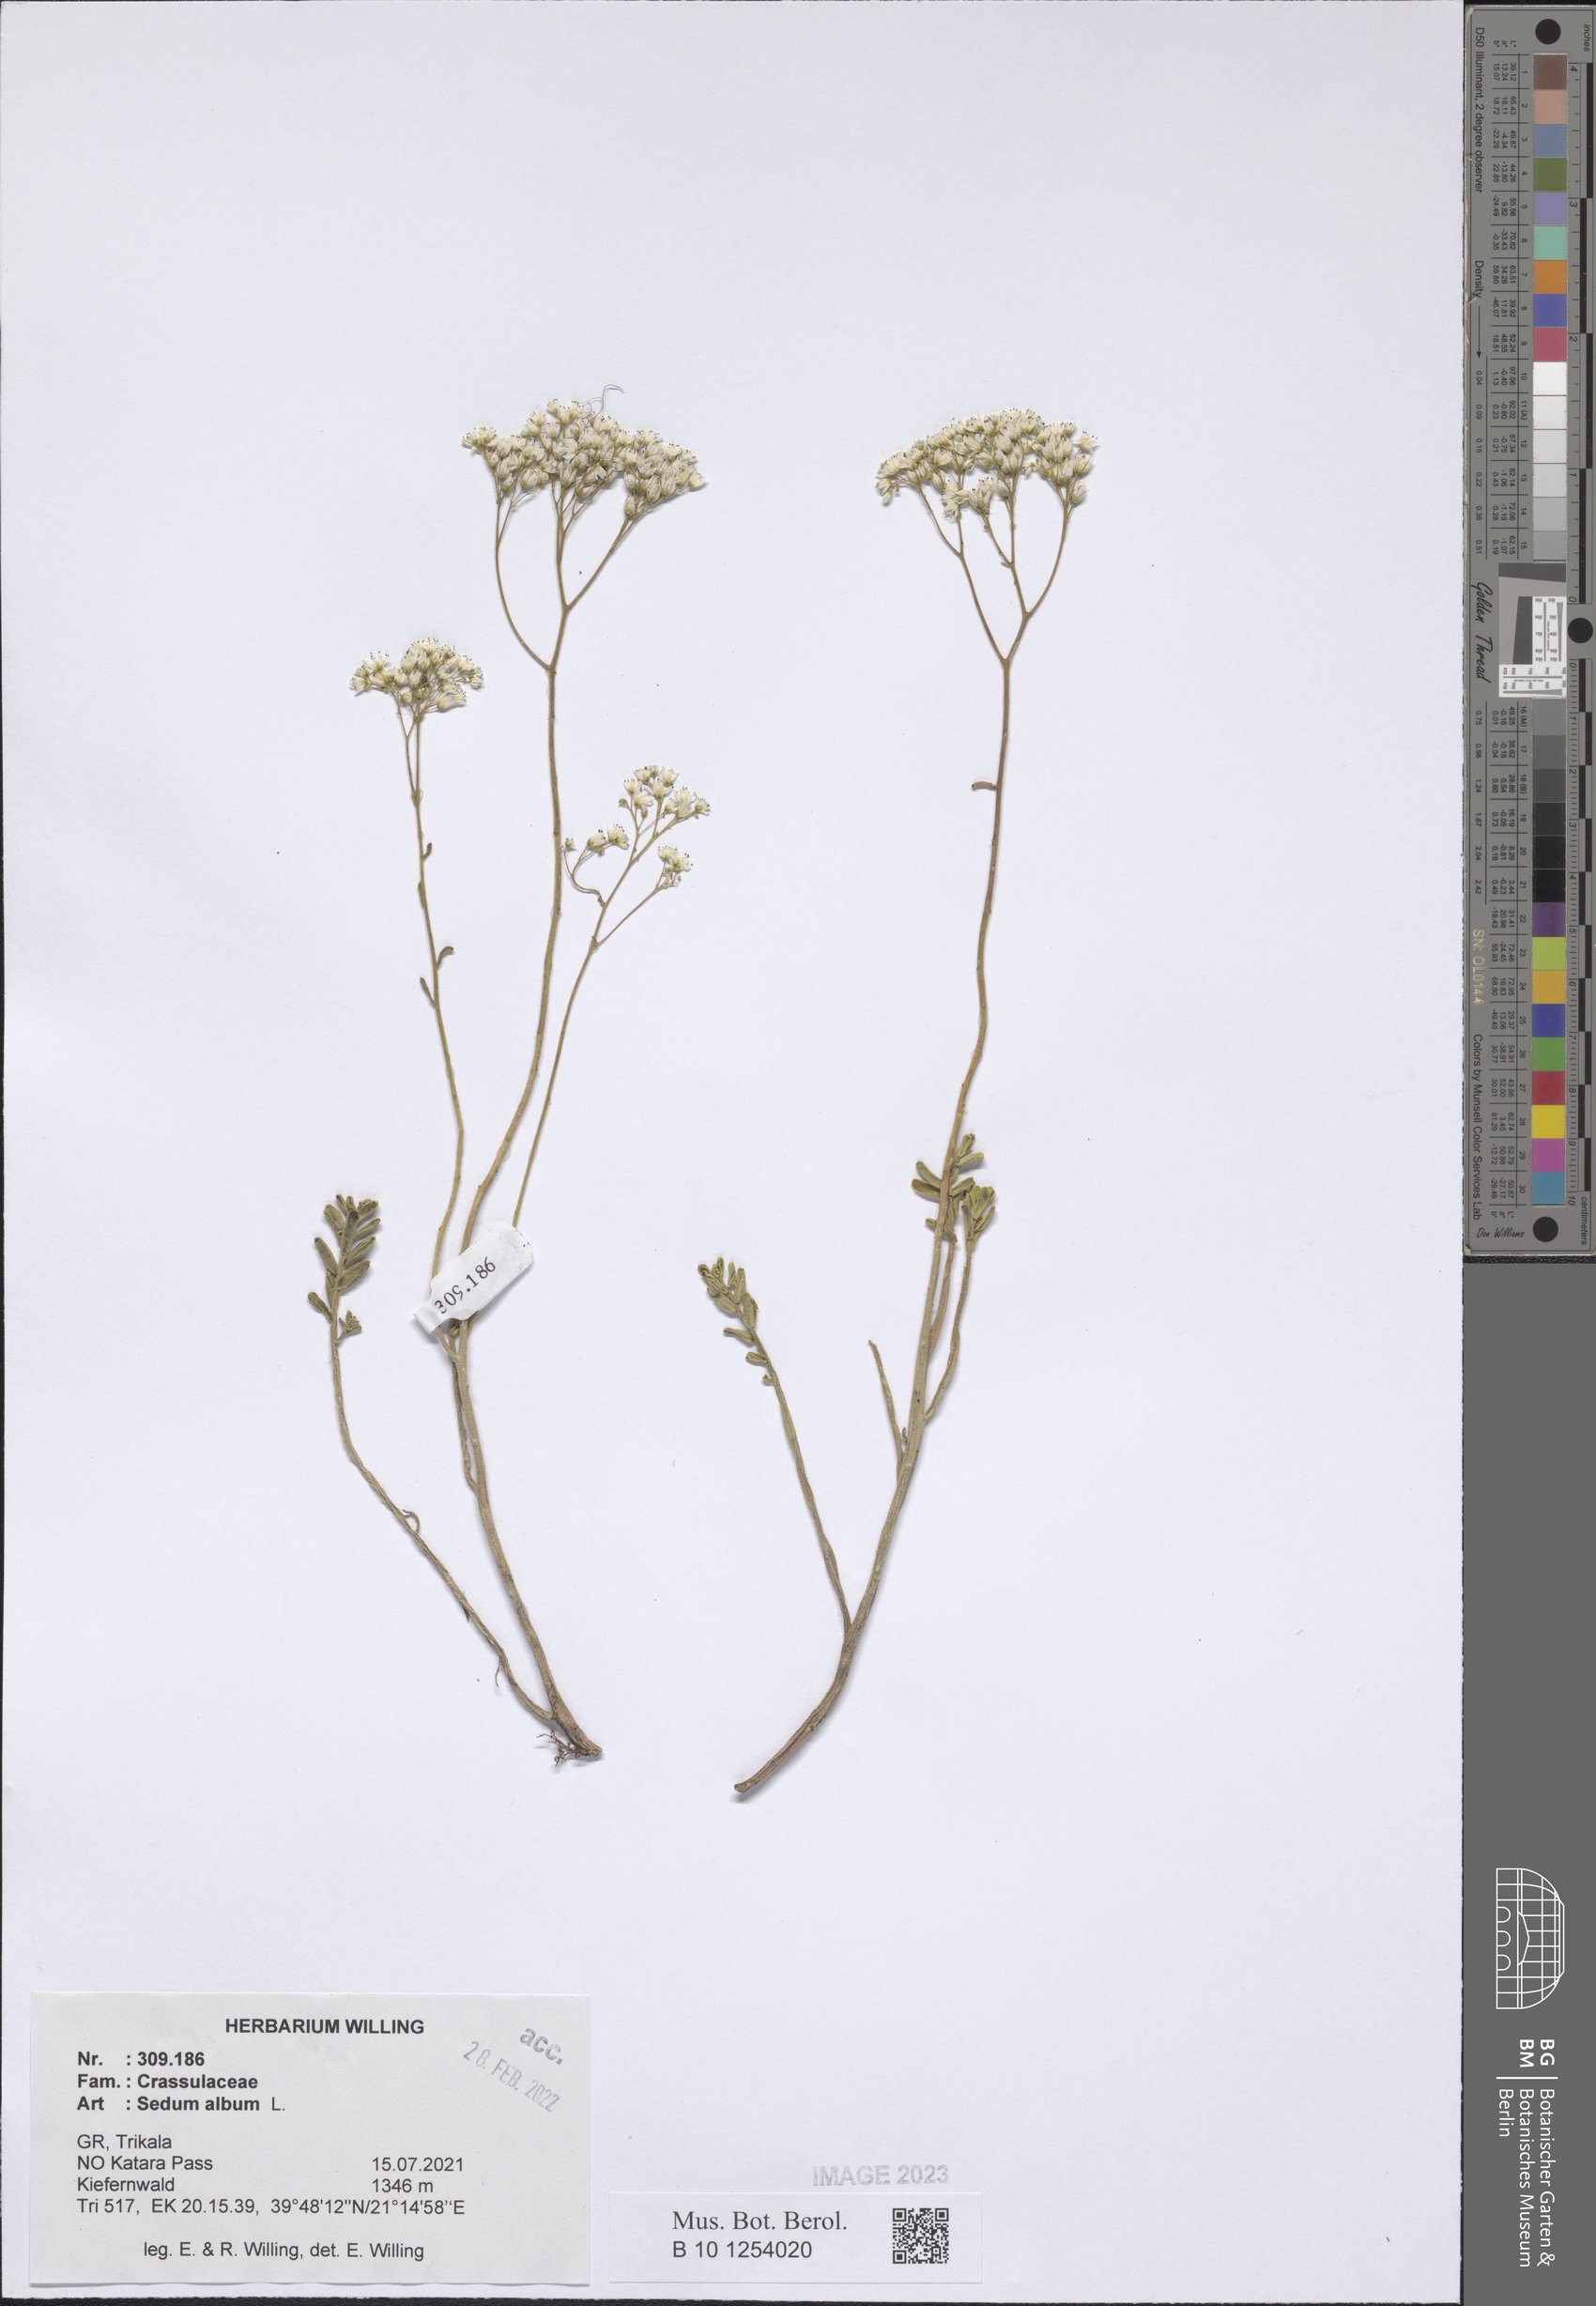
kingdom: Plantae
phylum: Tracheophyta
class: Magnoliopsida
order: Saxifragales
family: Crassulaceae
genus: Sedum
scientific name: Sedum album
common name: White stonecrop
